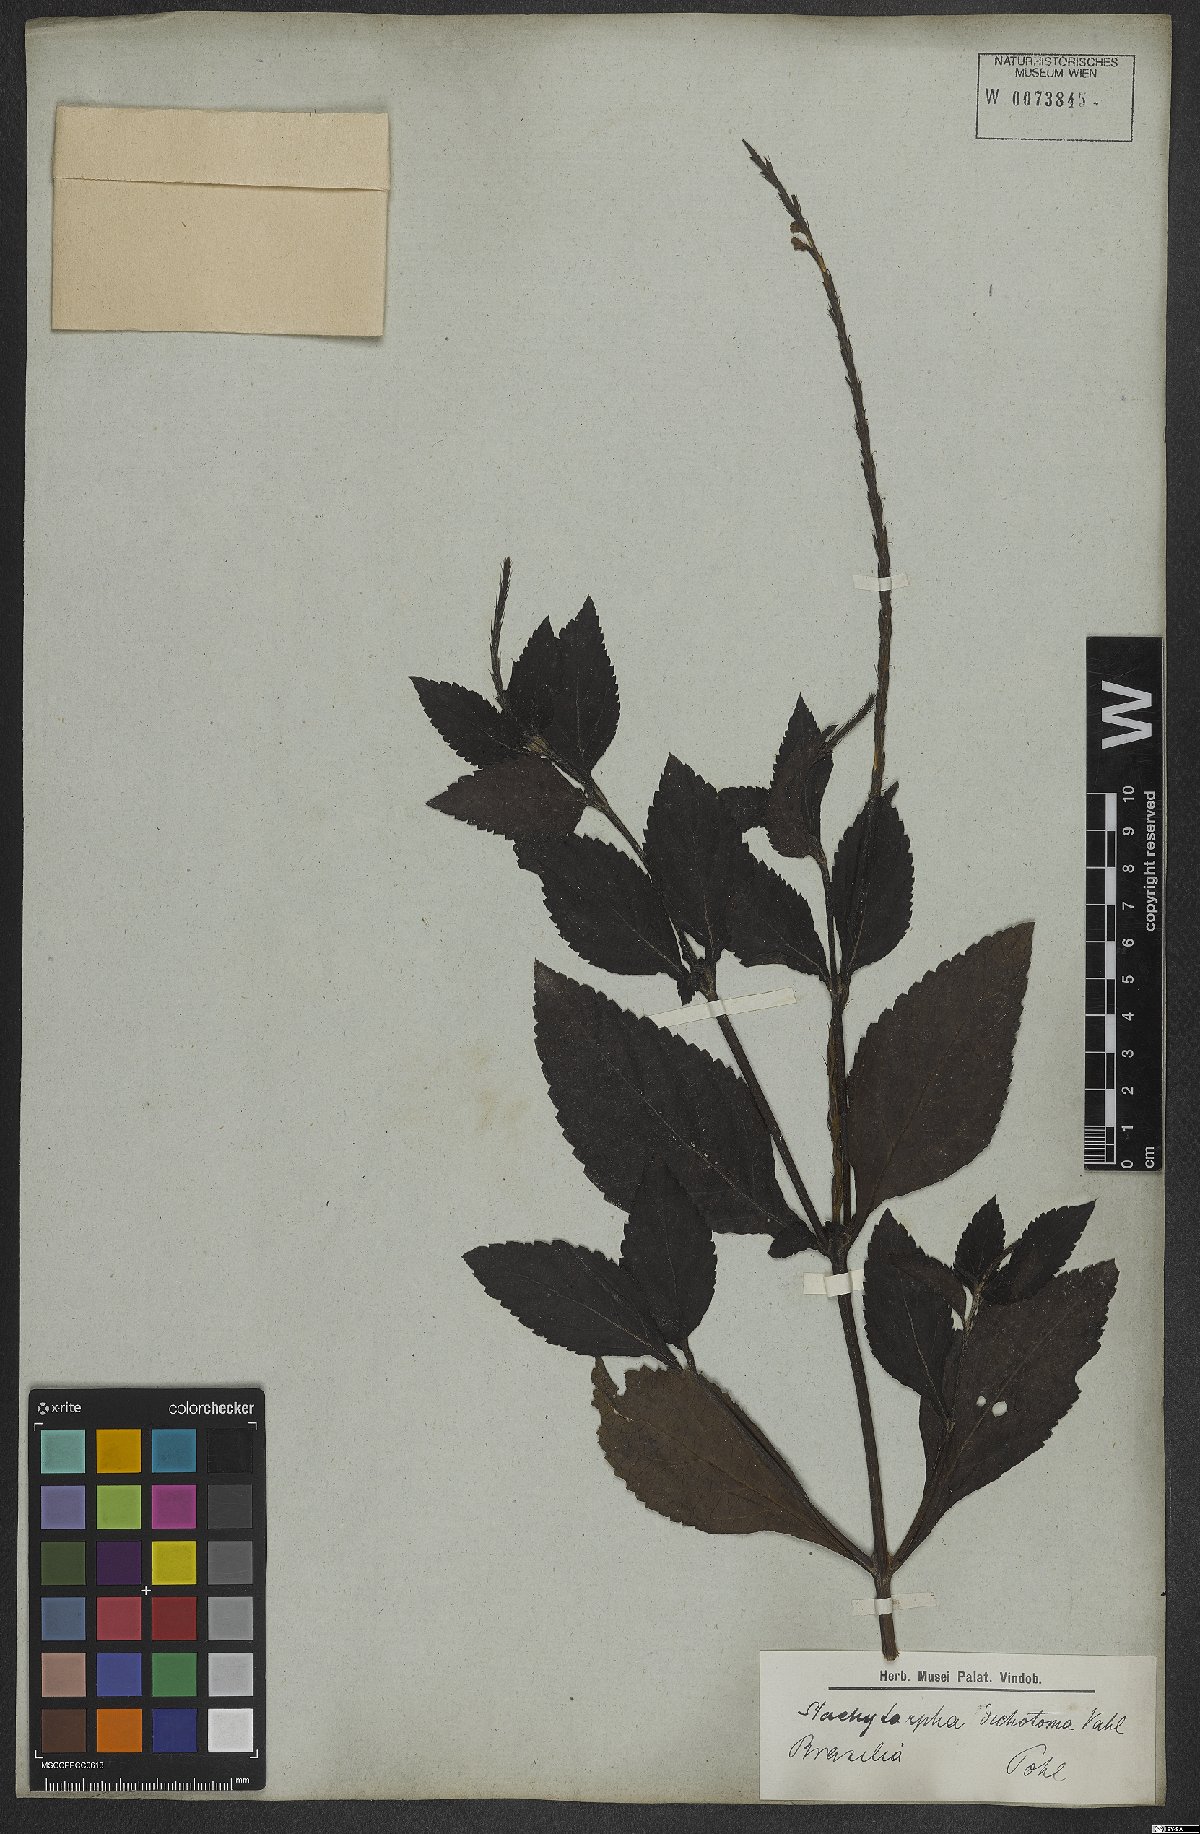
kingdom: Plantae
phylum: Tracheophyta
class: Magnoliopsida
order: Lamiales
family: Verbenaceae
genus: Stachytarpheta
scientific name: Stachytarpheta cayennensis
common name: Cayenne porterweed
